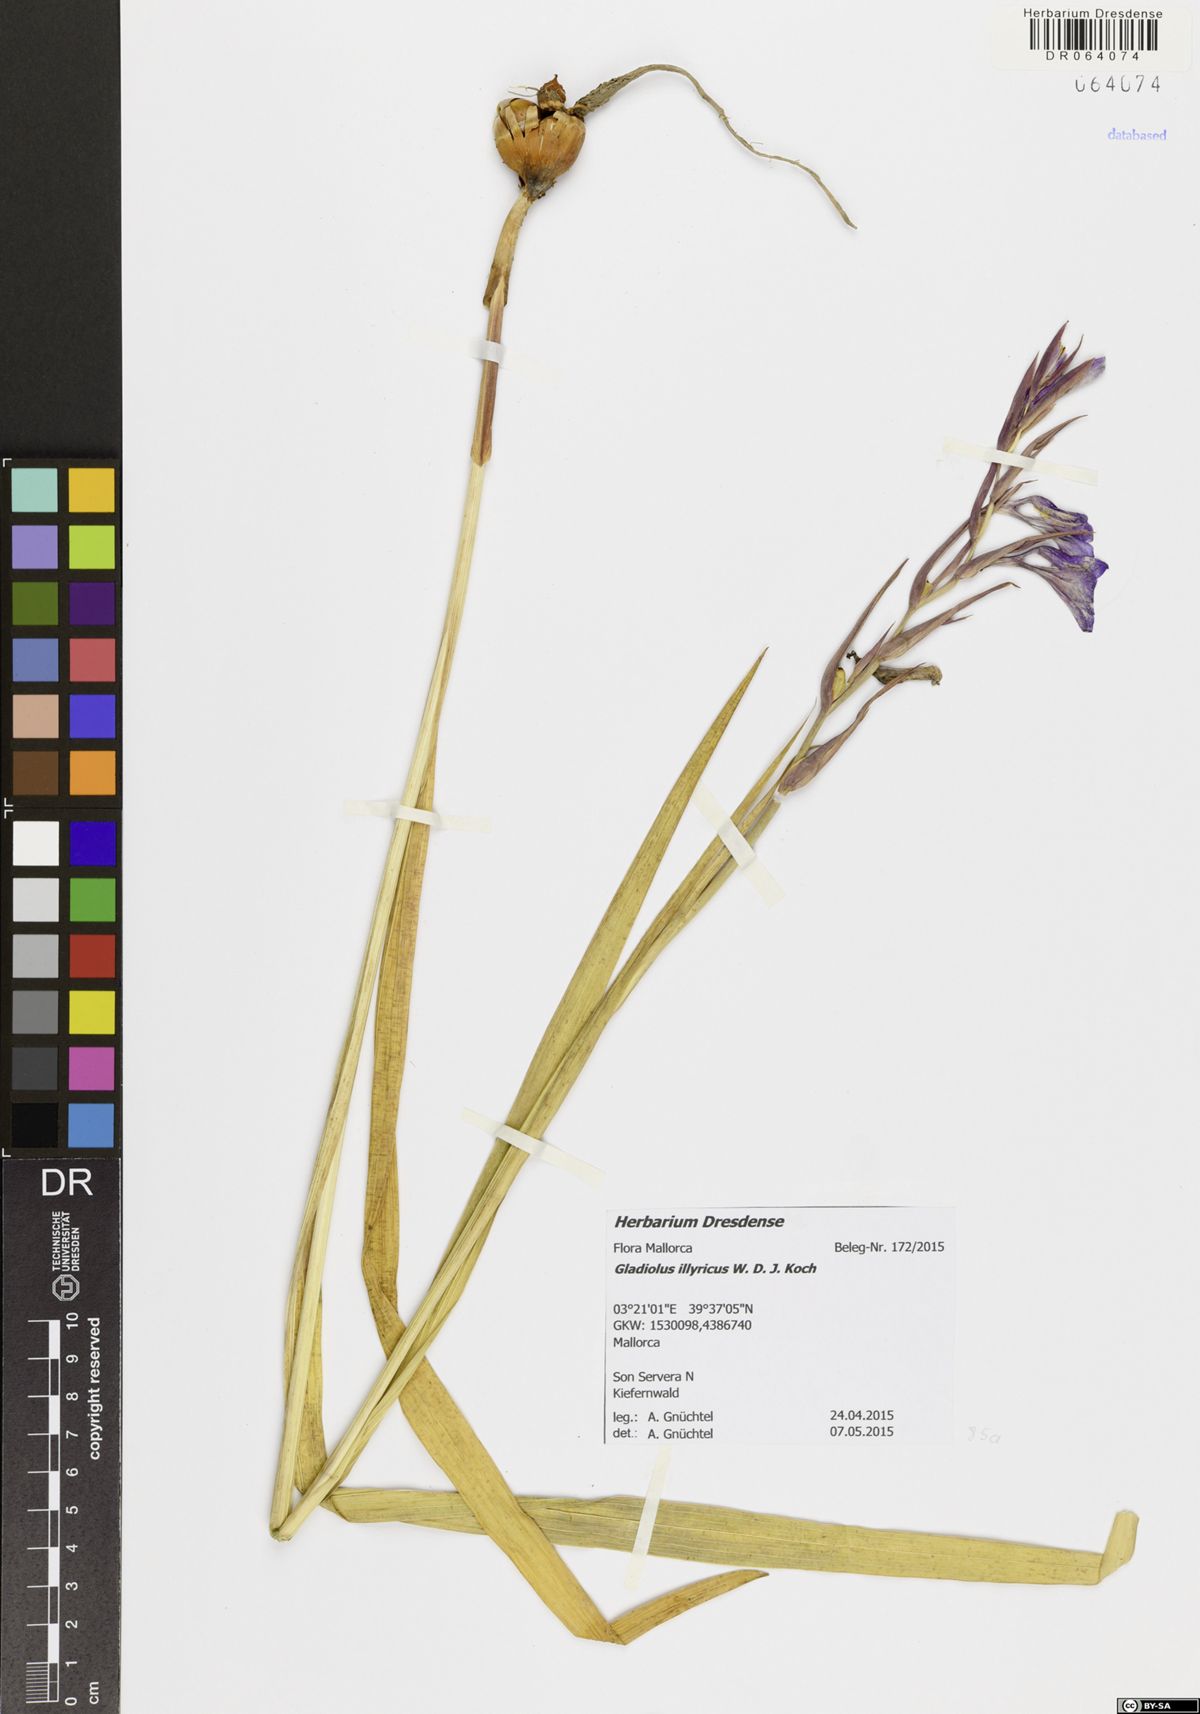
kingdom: Plantae
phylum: Tracheophyta
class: Liliopsida
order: Asparagales
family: Iridaceae
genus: Gladiolus
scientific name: Gladiolus illyricus
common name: Wild gladiolus
